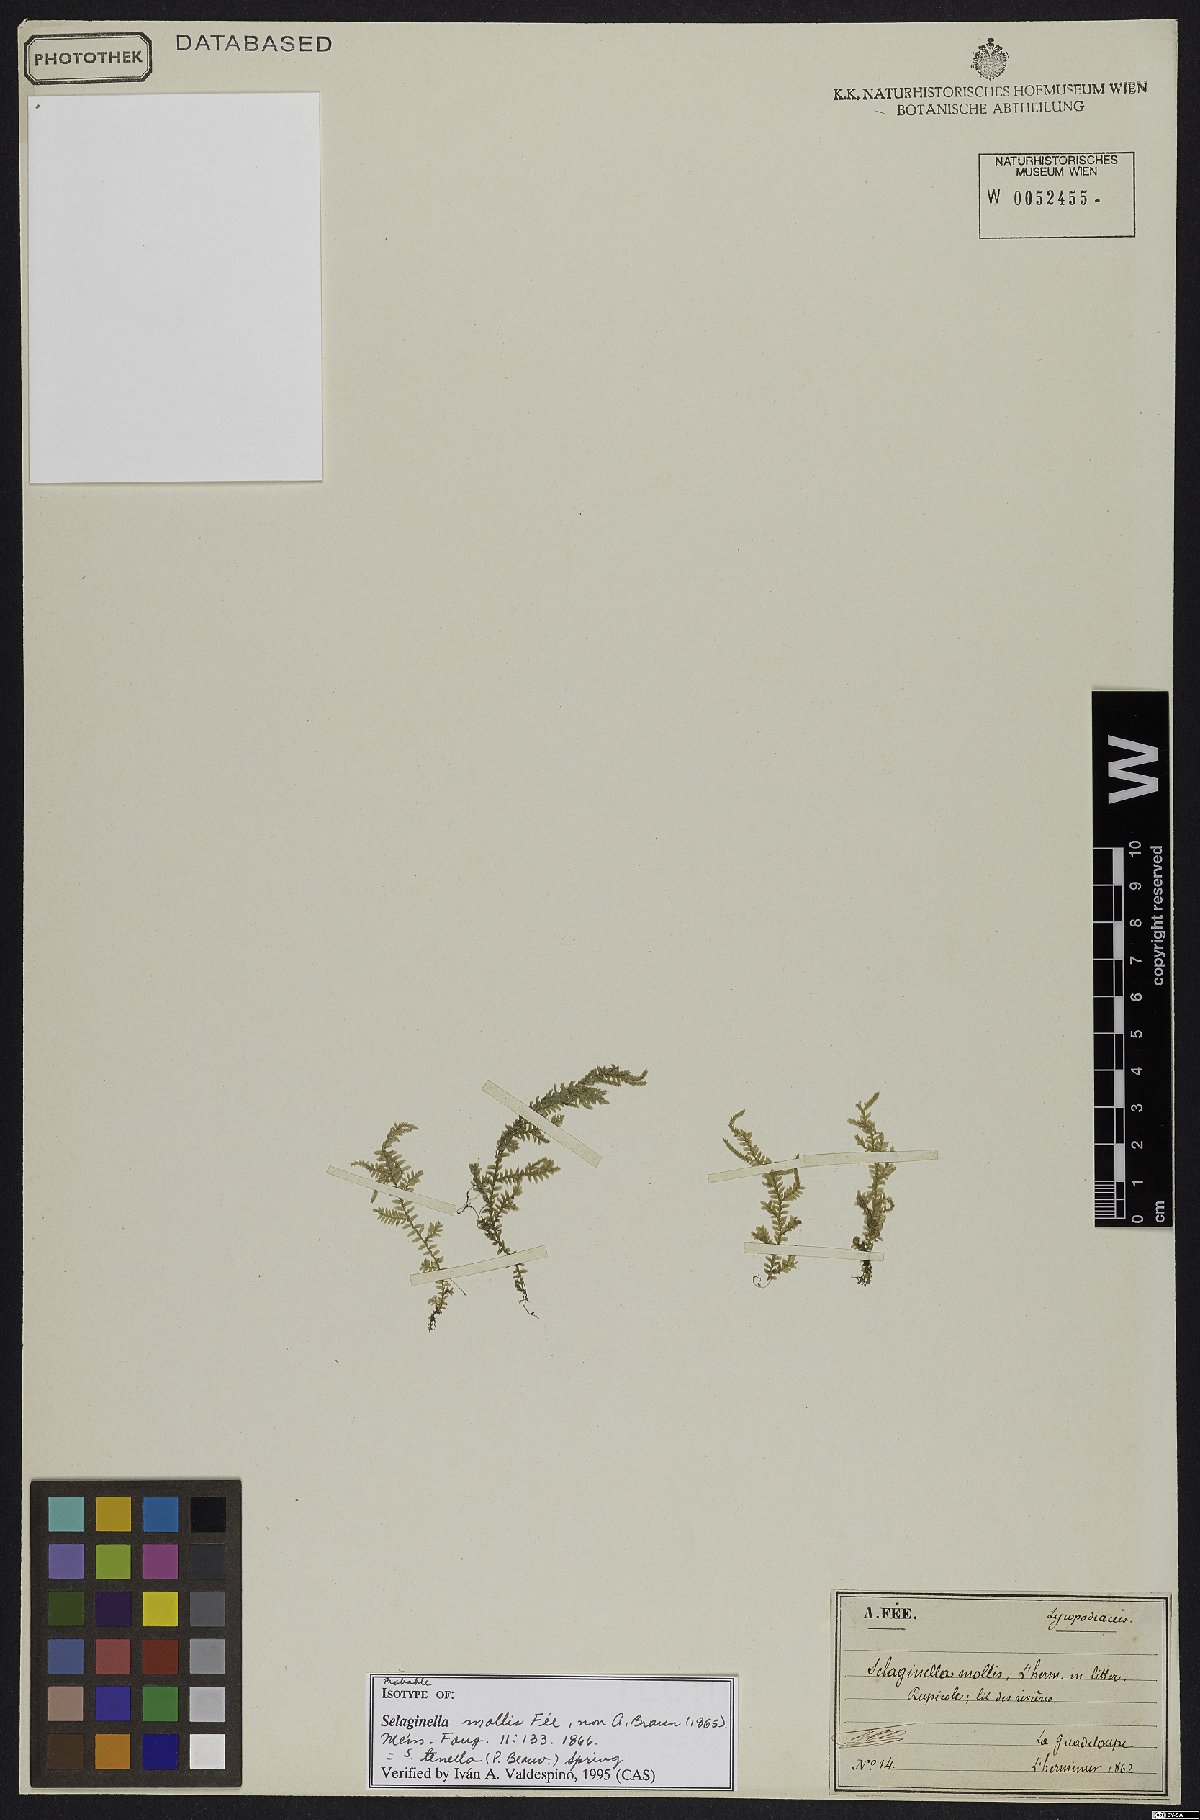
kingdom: Plantae
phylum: Tracheophyta
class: Lycopodiopsida
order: Selaginellales
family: Selaginellaceae
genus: Selaginella
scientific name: Selaginella tenella
